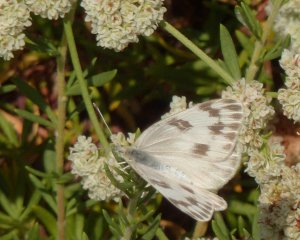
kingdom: Animalia
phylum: Arthropoda
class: Insecta
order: Lepidoptera
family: Pieridae
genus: Pontia
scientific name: Pontia protodice
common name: Checkered White
